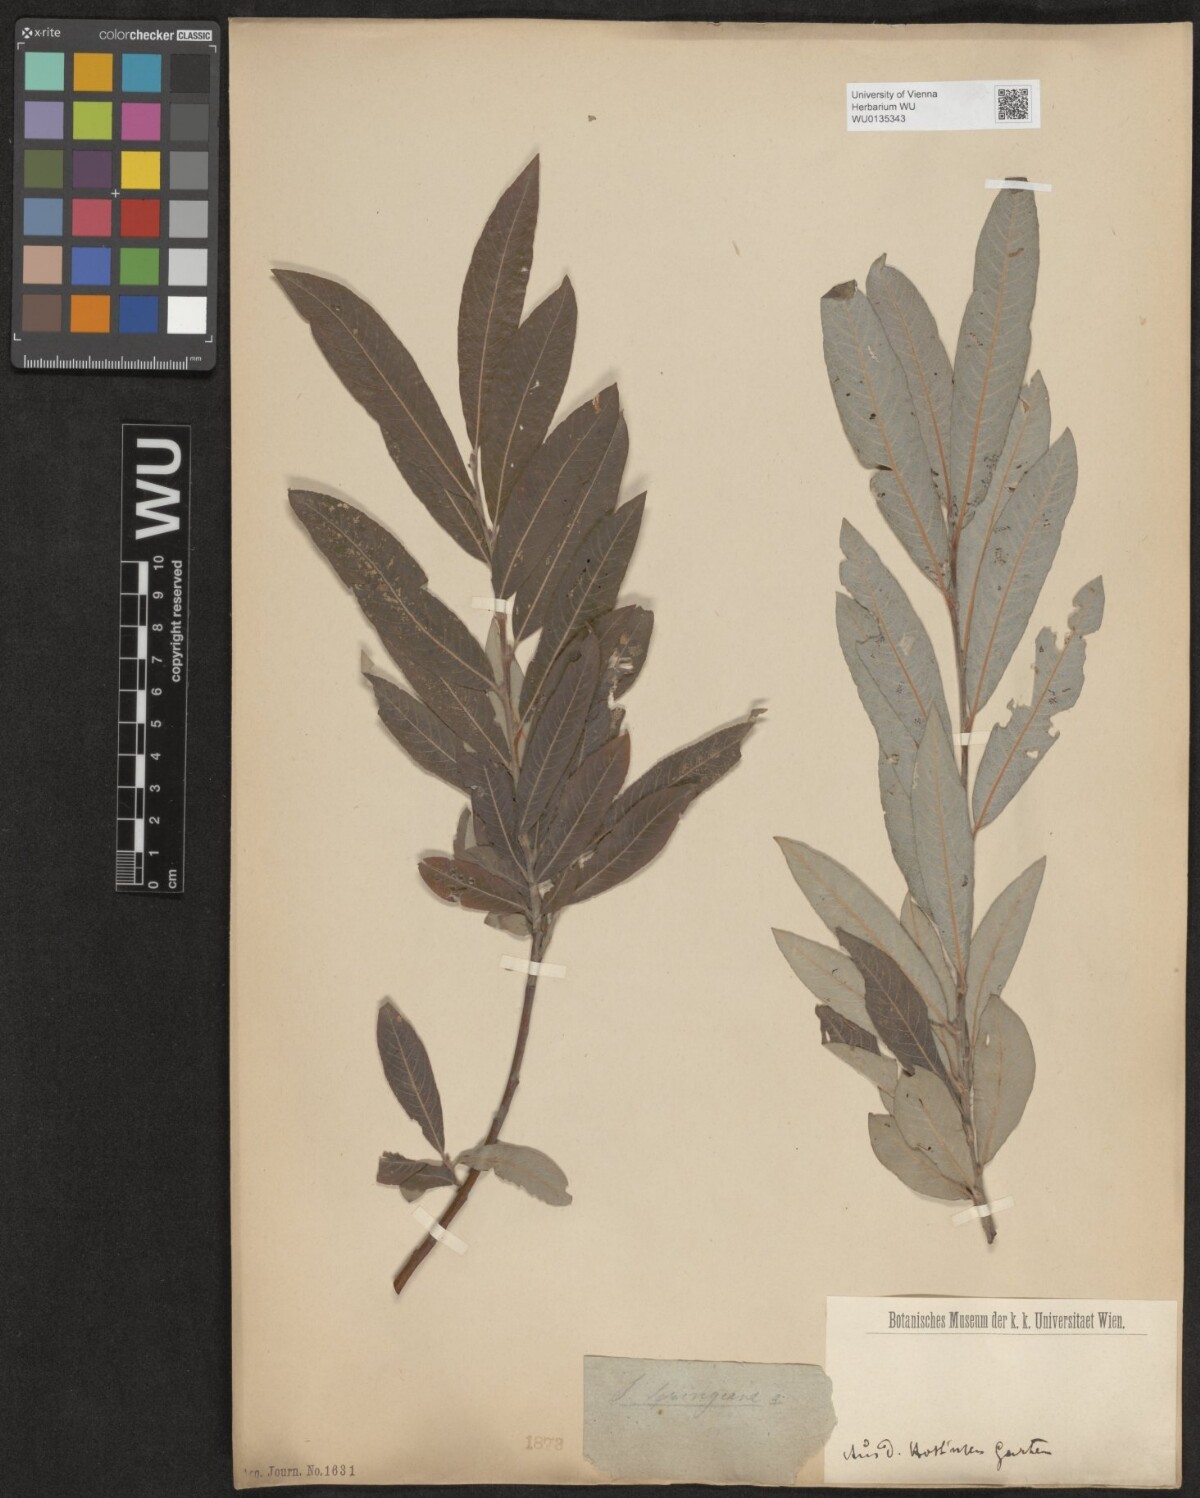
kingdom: Plantae
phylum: Tracheophyta
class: Magnoliopsida
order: Malpighiales
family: Salicaceae
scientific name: Salicaceae
